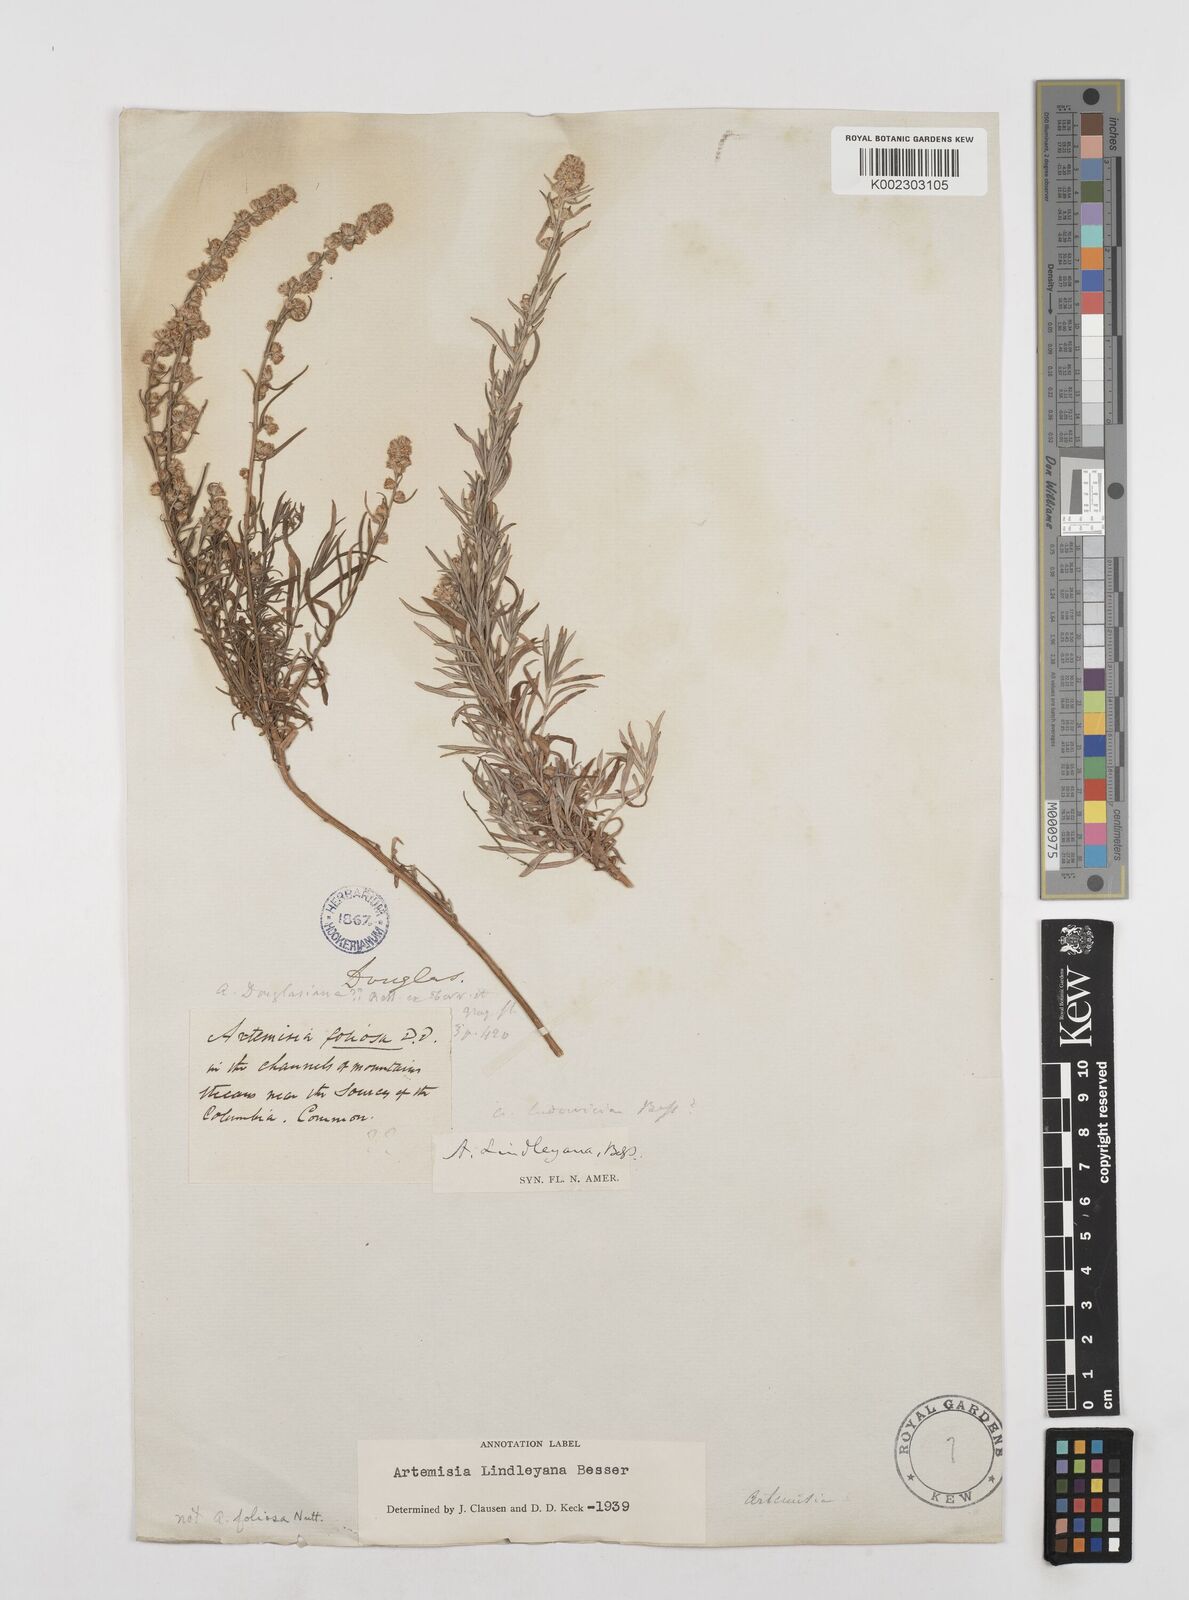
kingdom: Plantae
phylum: Tracheophyta
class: Magnoliopsida
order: Asterales
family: Asteraceae
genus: Artemisia
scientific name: Artemisia ludoviciana
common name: Western mugwort
